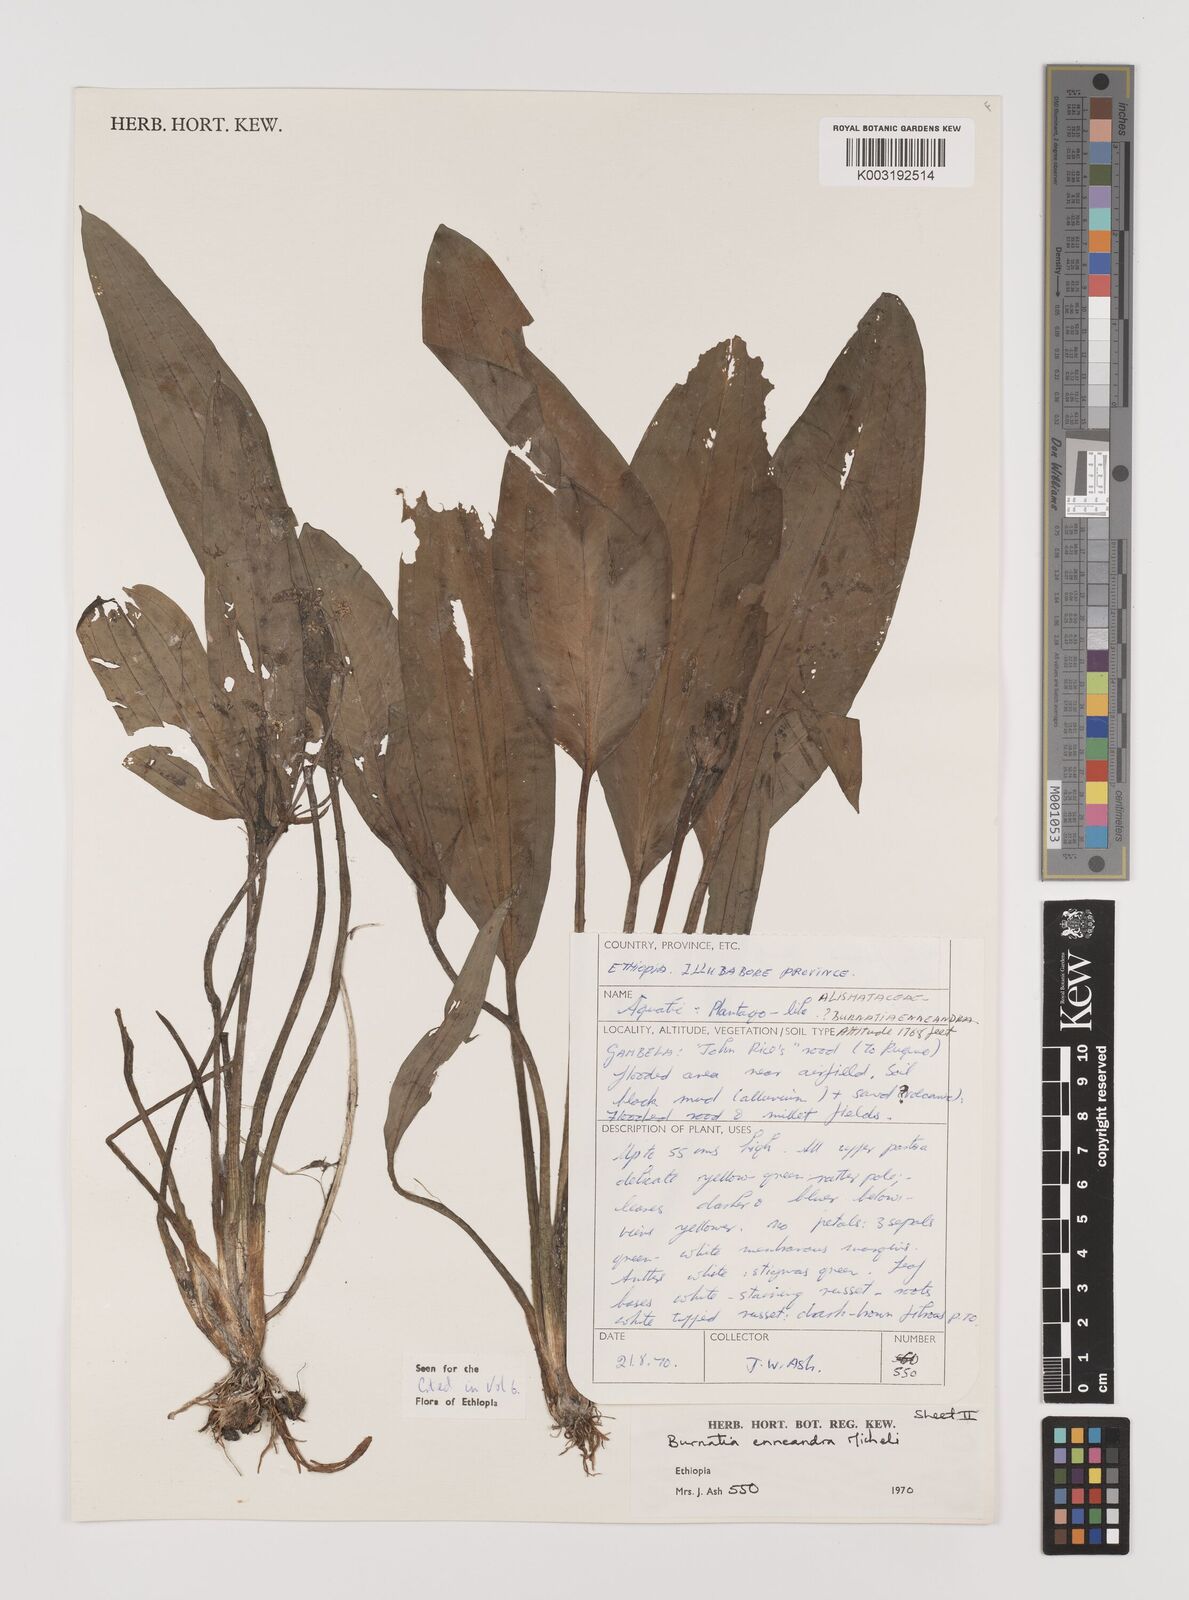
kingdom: Plantae
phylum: Tracheophyta
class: Liliopsida
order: Alismatales
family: Alismataceae
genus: Burnatia
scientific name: Burnatia enneandra
